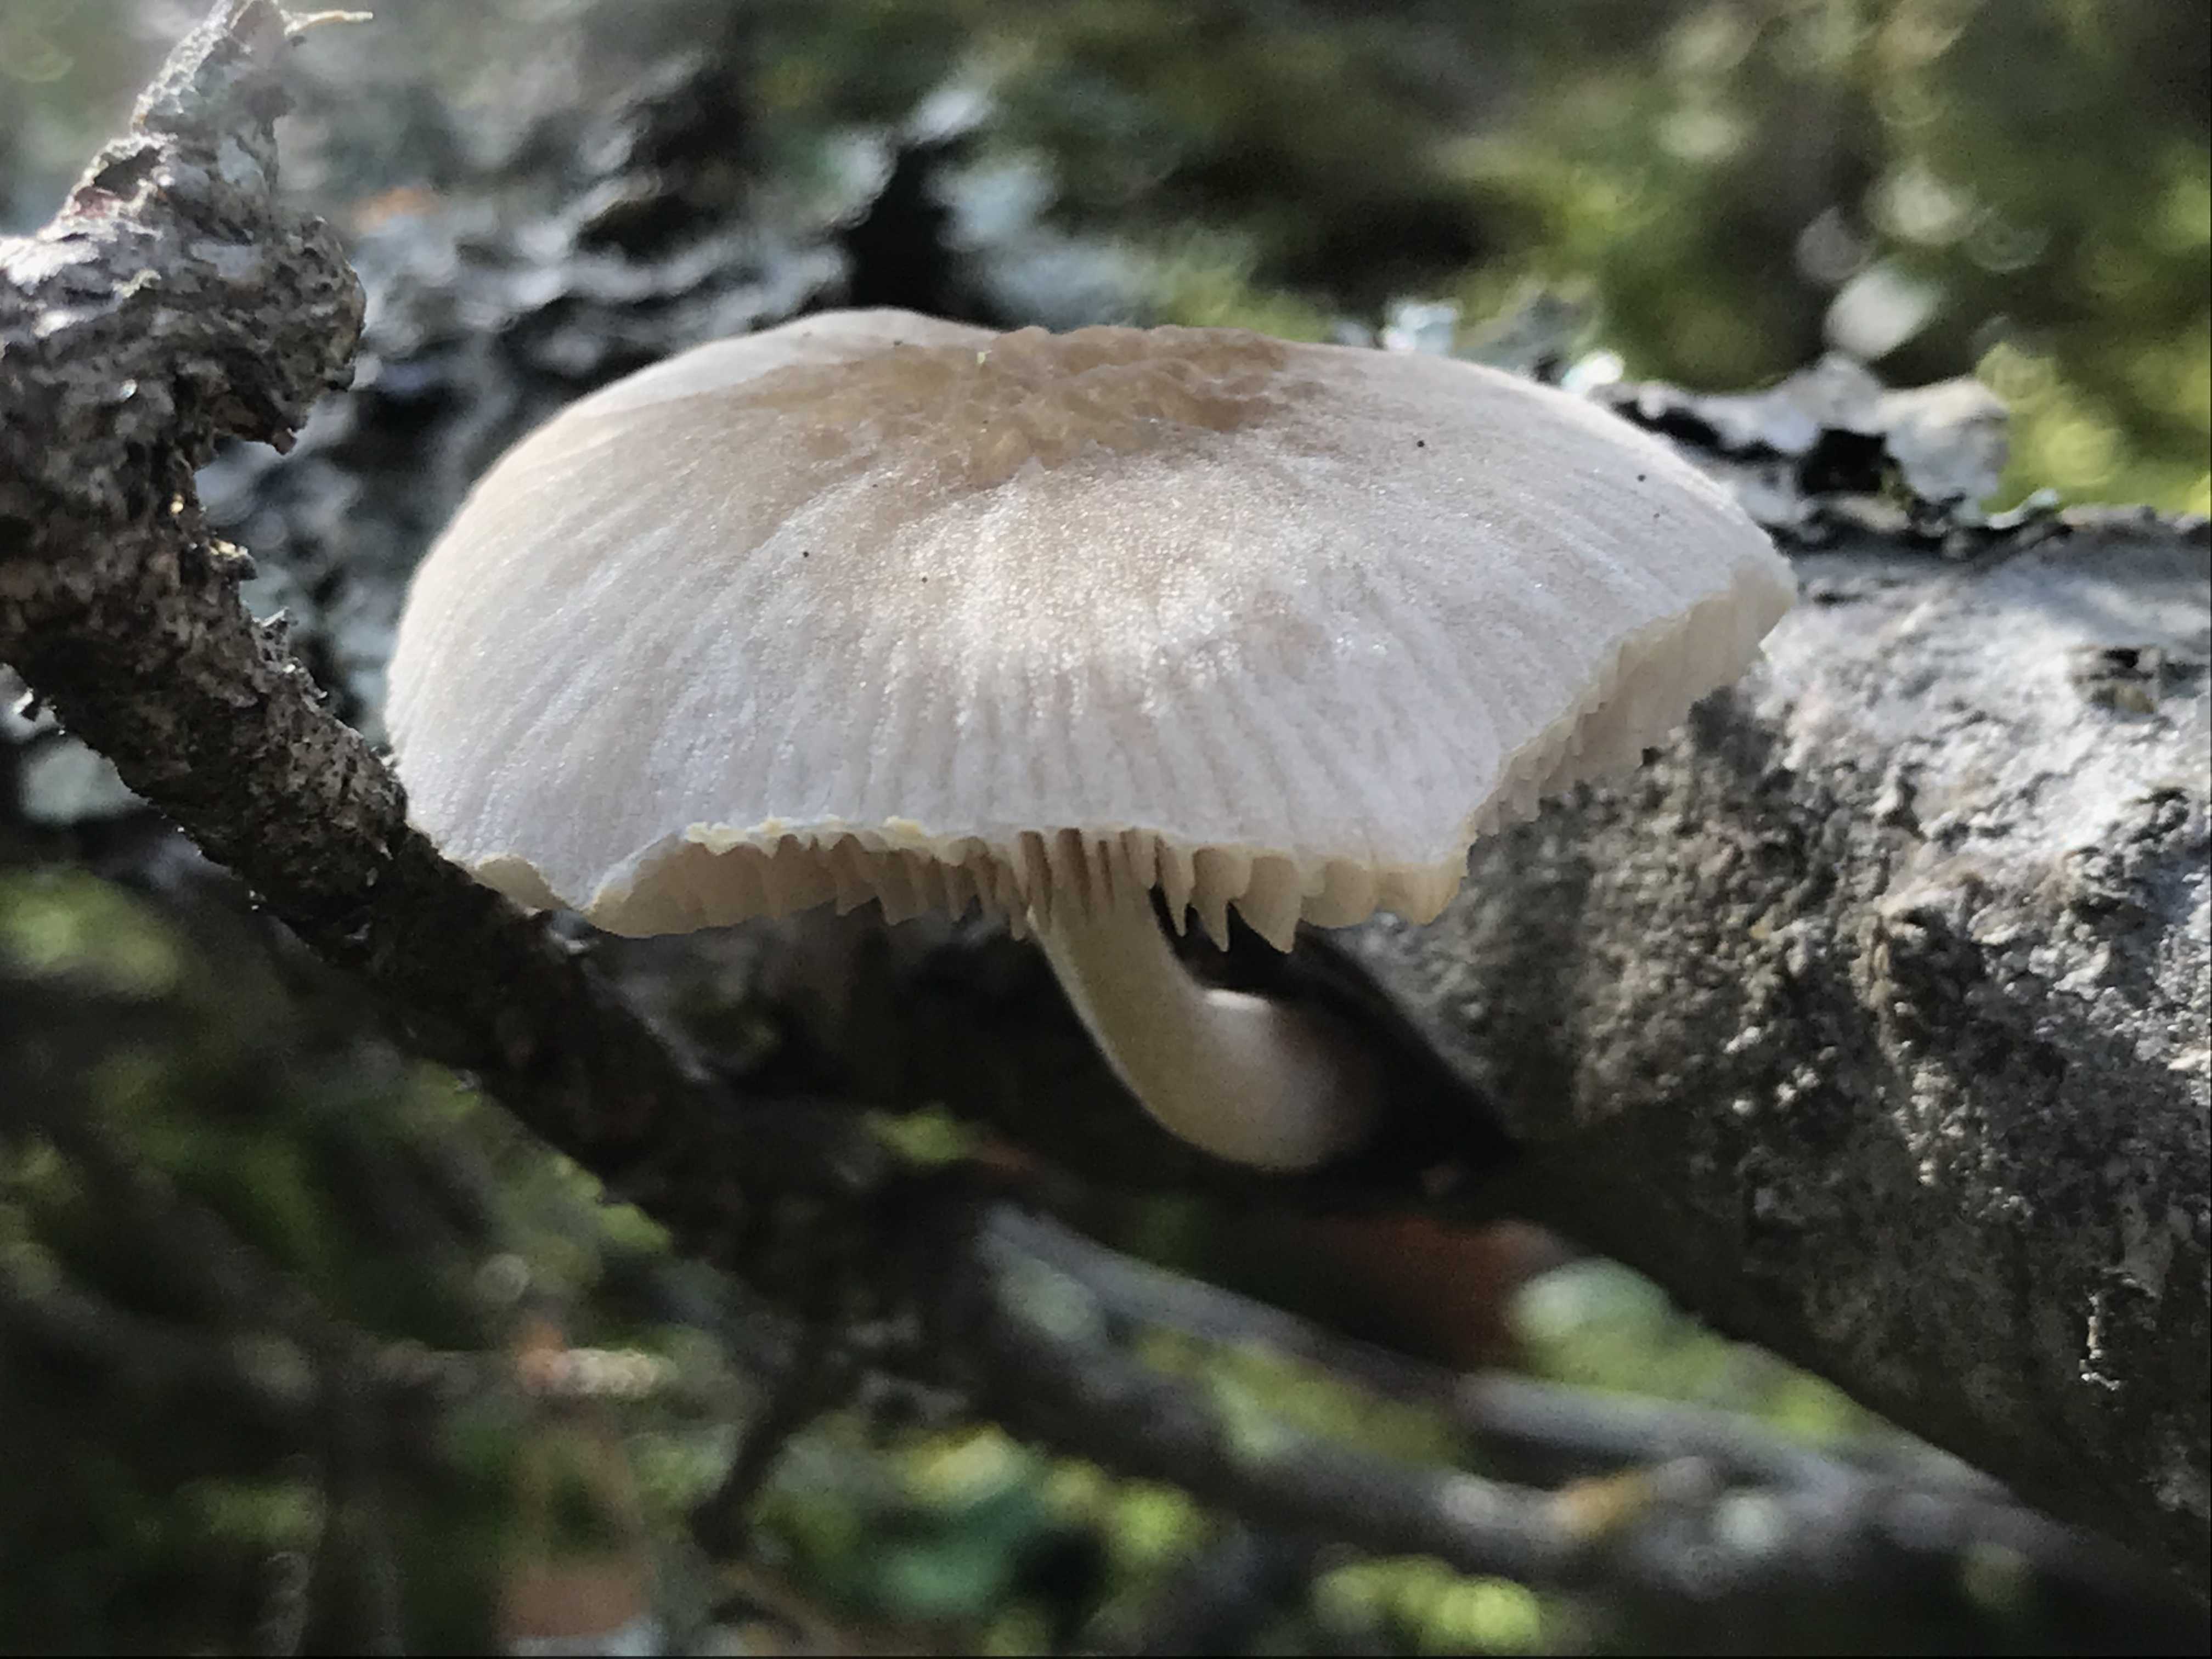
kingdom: Fungi
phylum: Basidiomycota
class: Agaricomycetes
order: Agaricales
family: Pluteaceae
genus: Pluteus
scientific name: Pluteus
